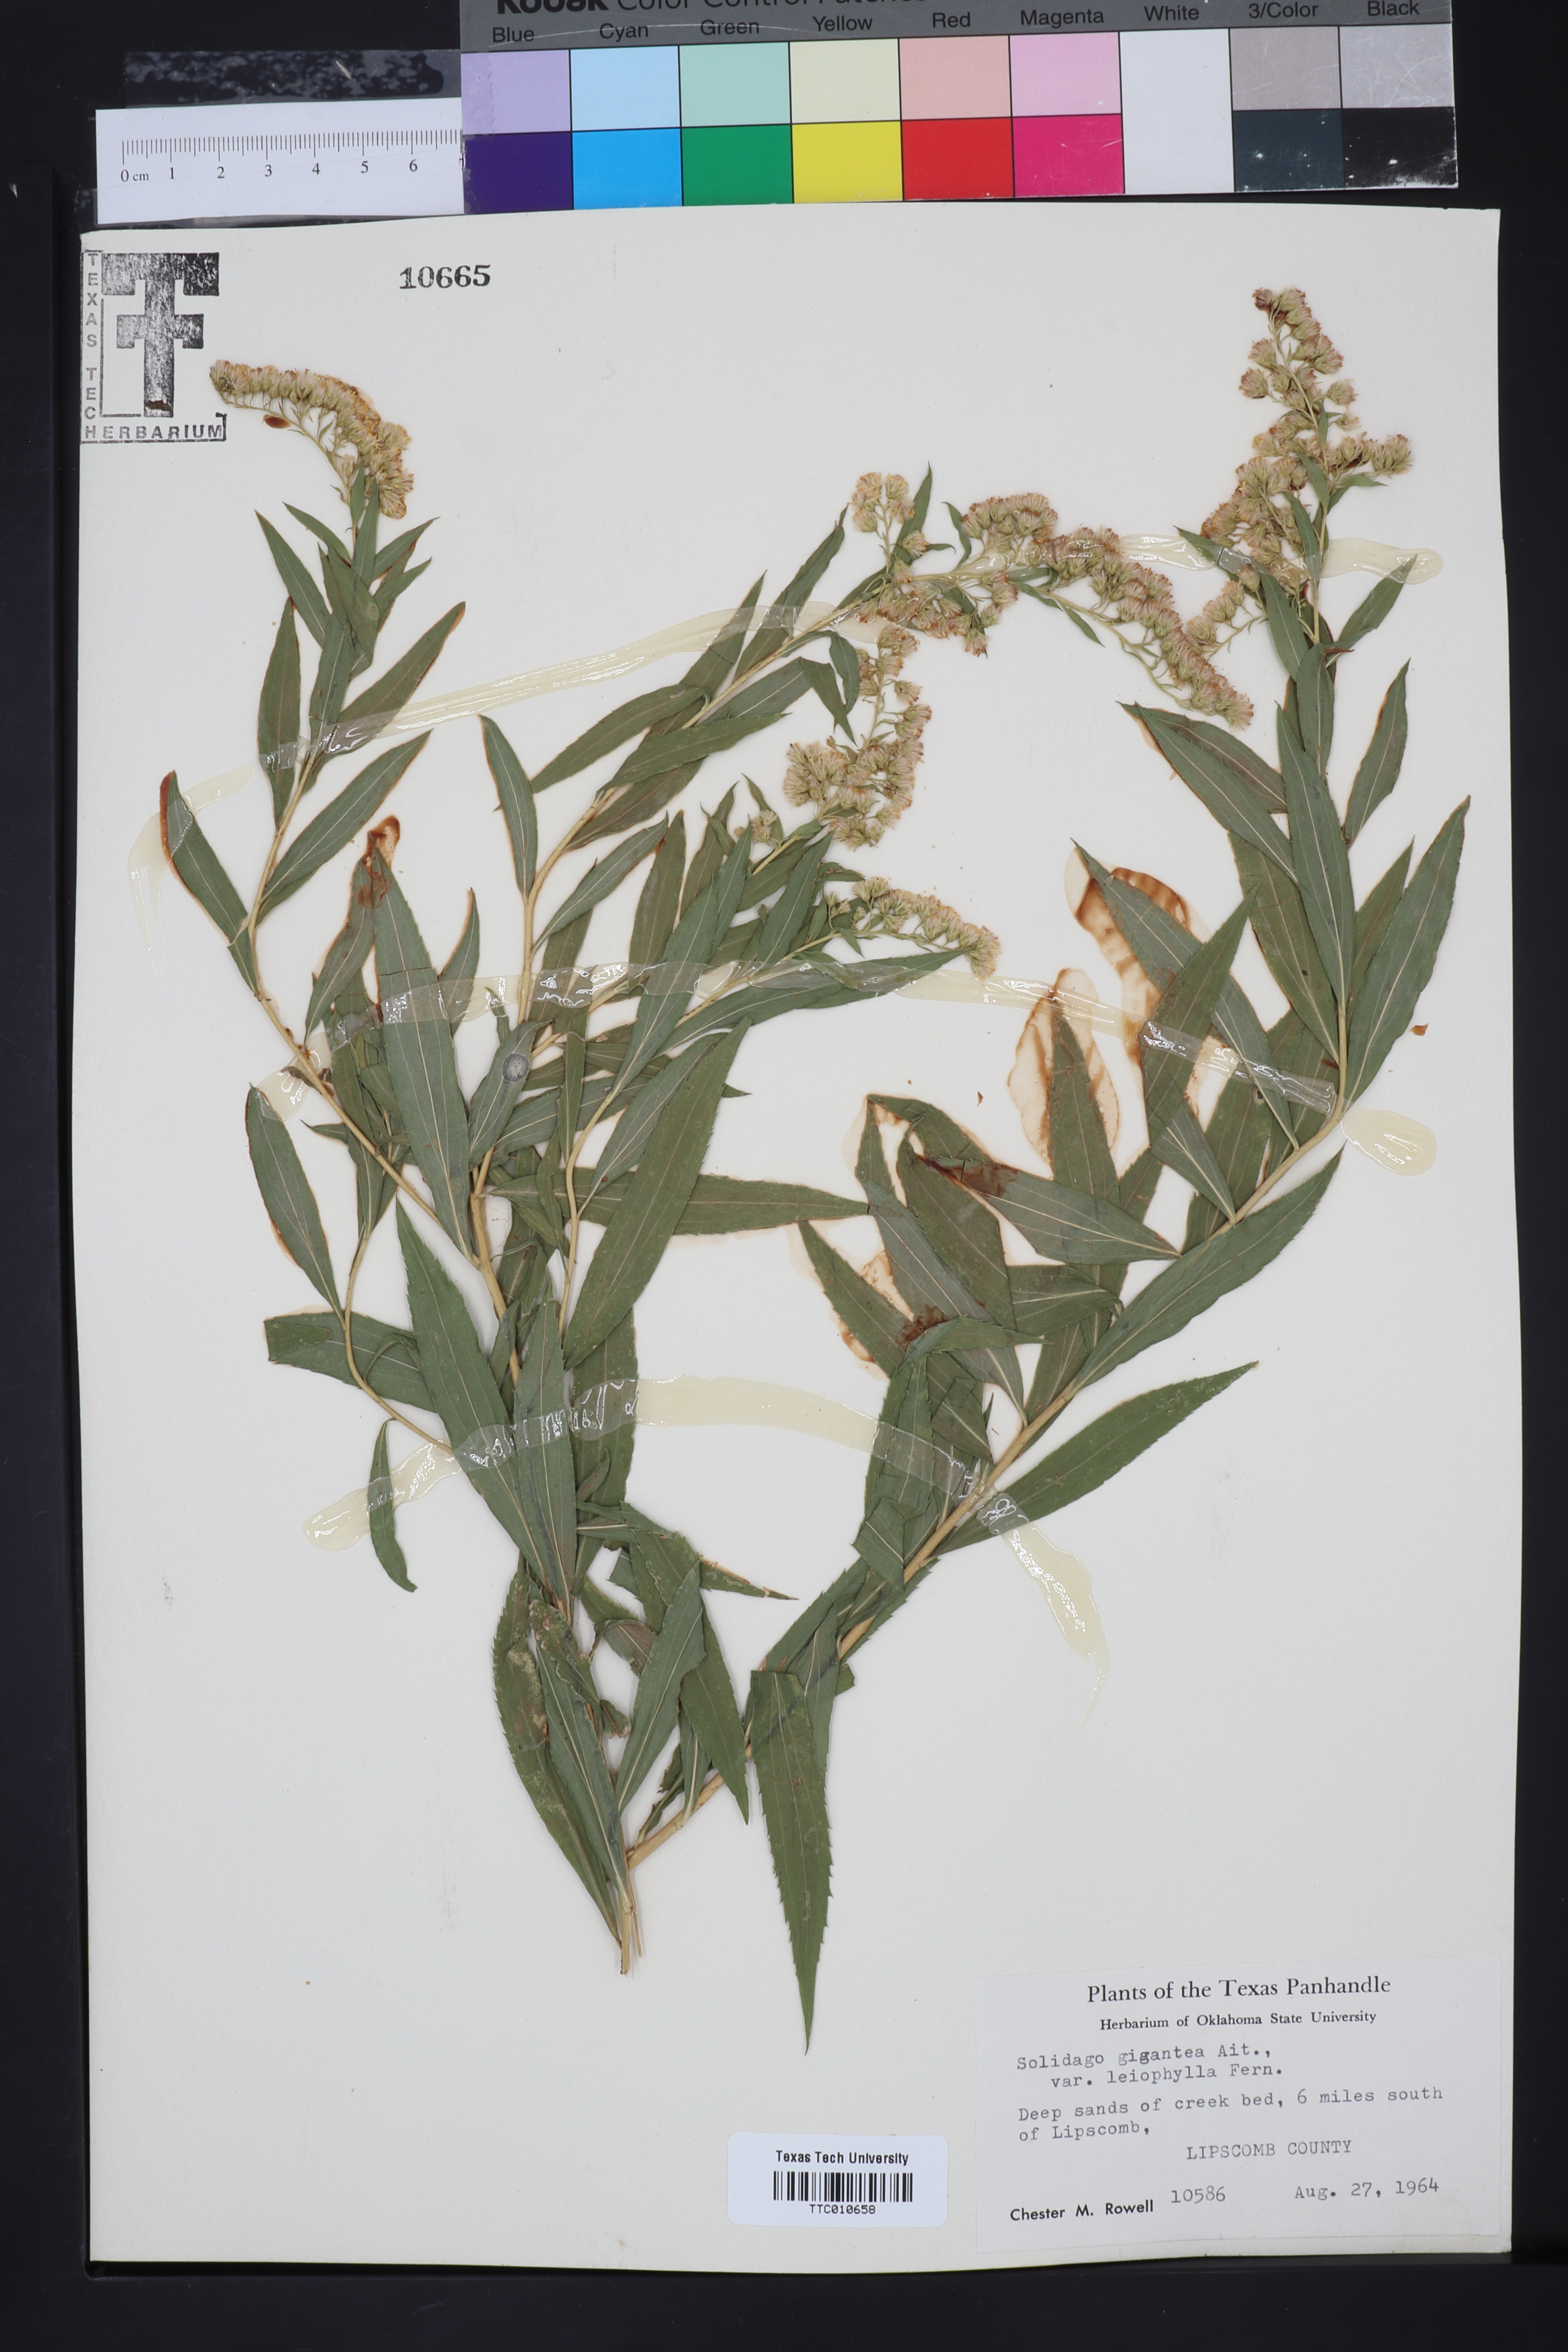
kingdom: Plantae
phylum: Tracheophyta
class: Magnoliopsida
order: Asterales
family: Asteraceae
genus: Solidago
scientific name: Solidago gigantea
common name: Giant goldenrod
